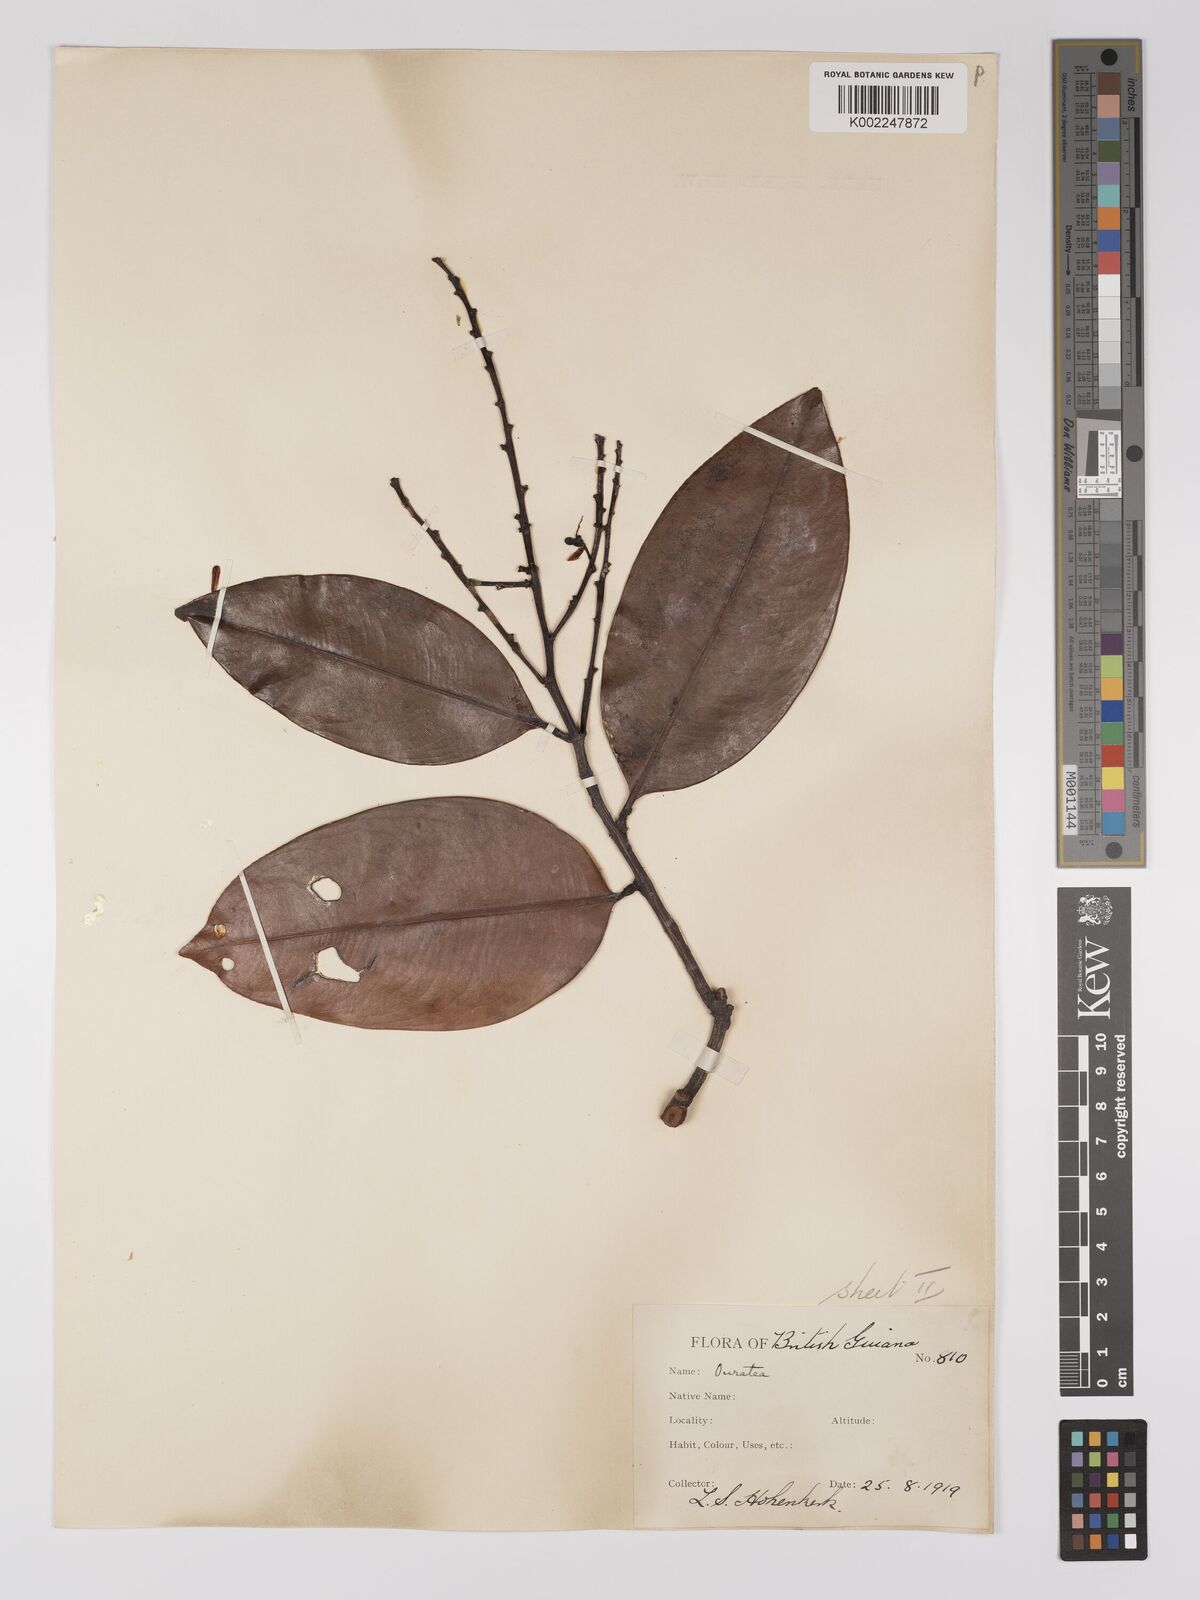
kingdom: Plantae
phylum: Tracheophyta
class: Magnoliopsida
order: Malpighiales
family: Ochnaceae
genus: Ouratea
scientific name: Ouratea
